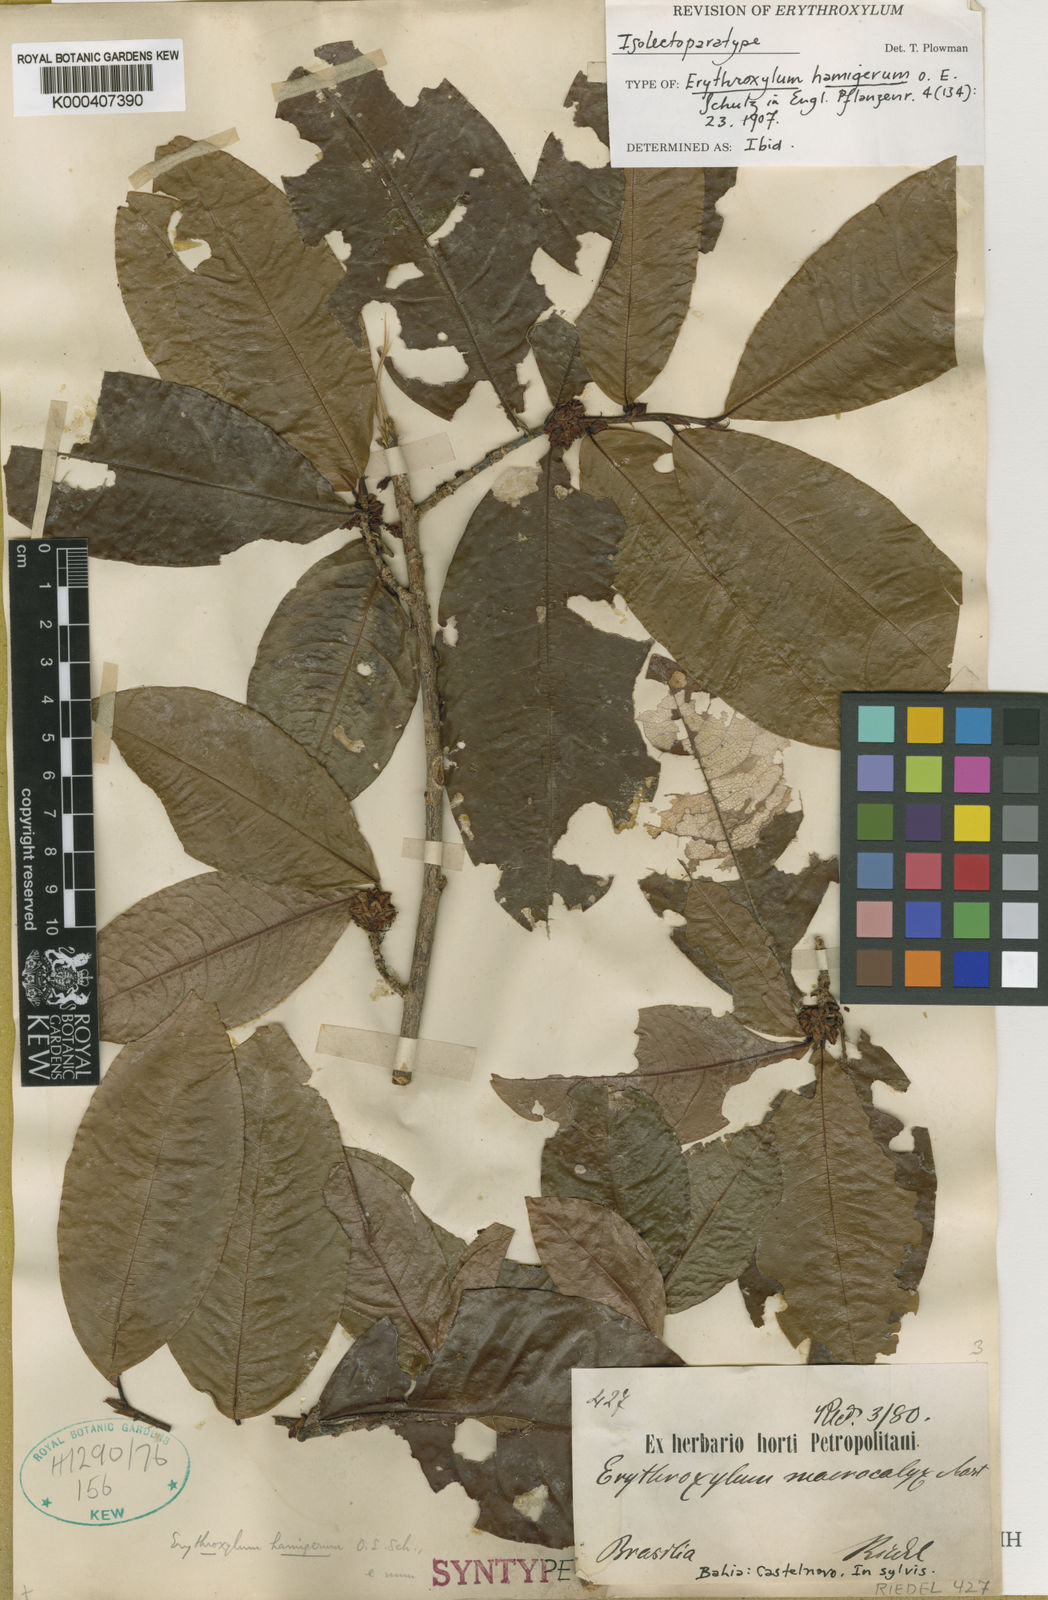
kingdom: Plantae
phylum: Tracheophyta
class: Magnoliopsida
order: Malpighiales
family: Erythroxylaceae
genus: Erythroxylum
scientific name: Erythroxylum hamigerum
